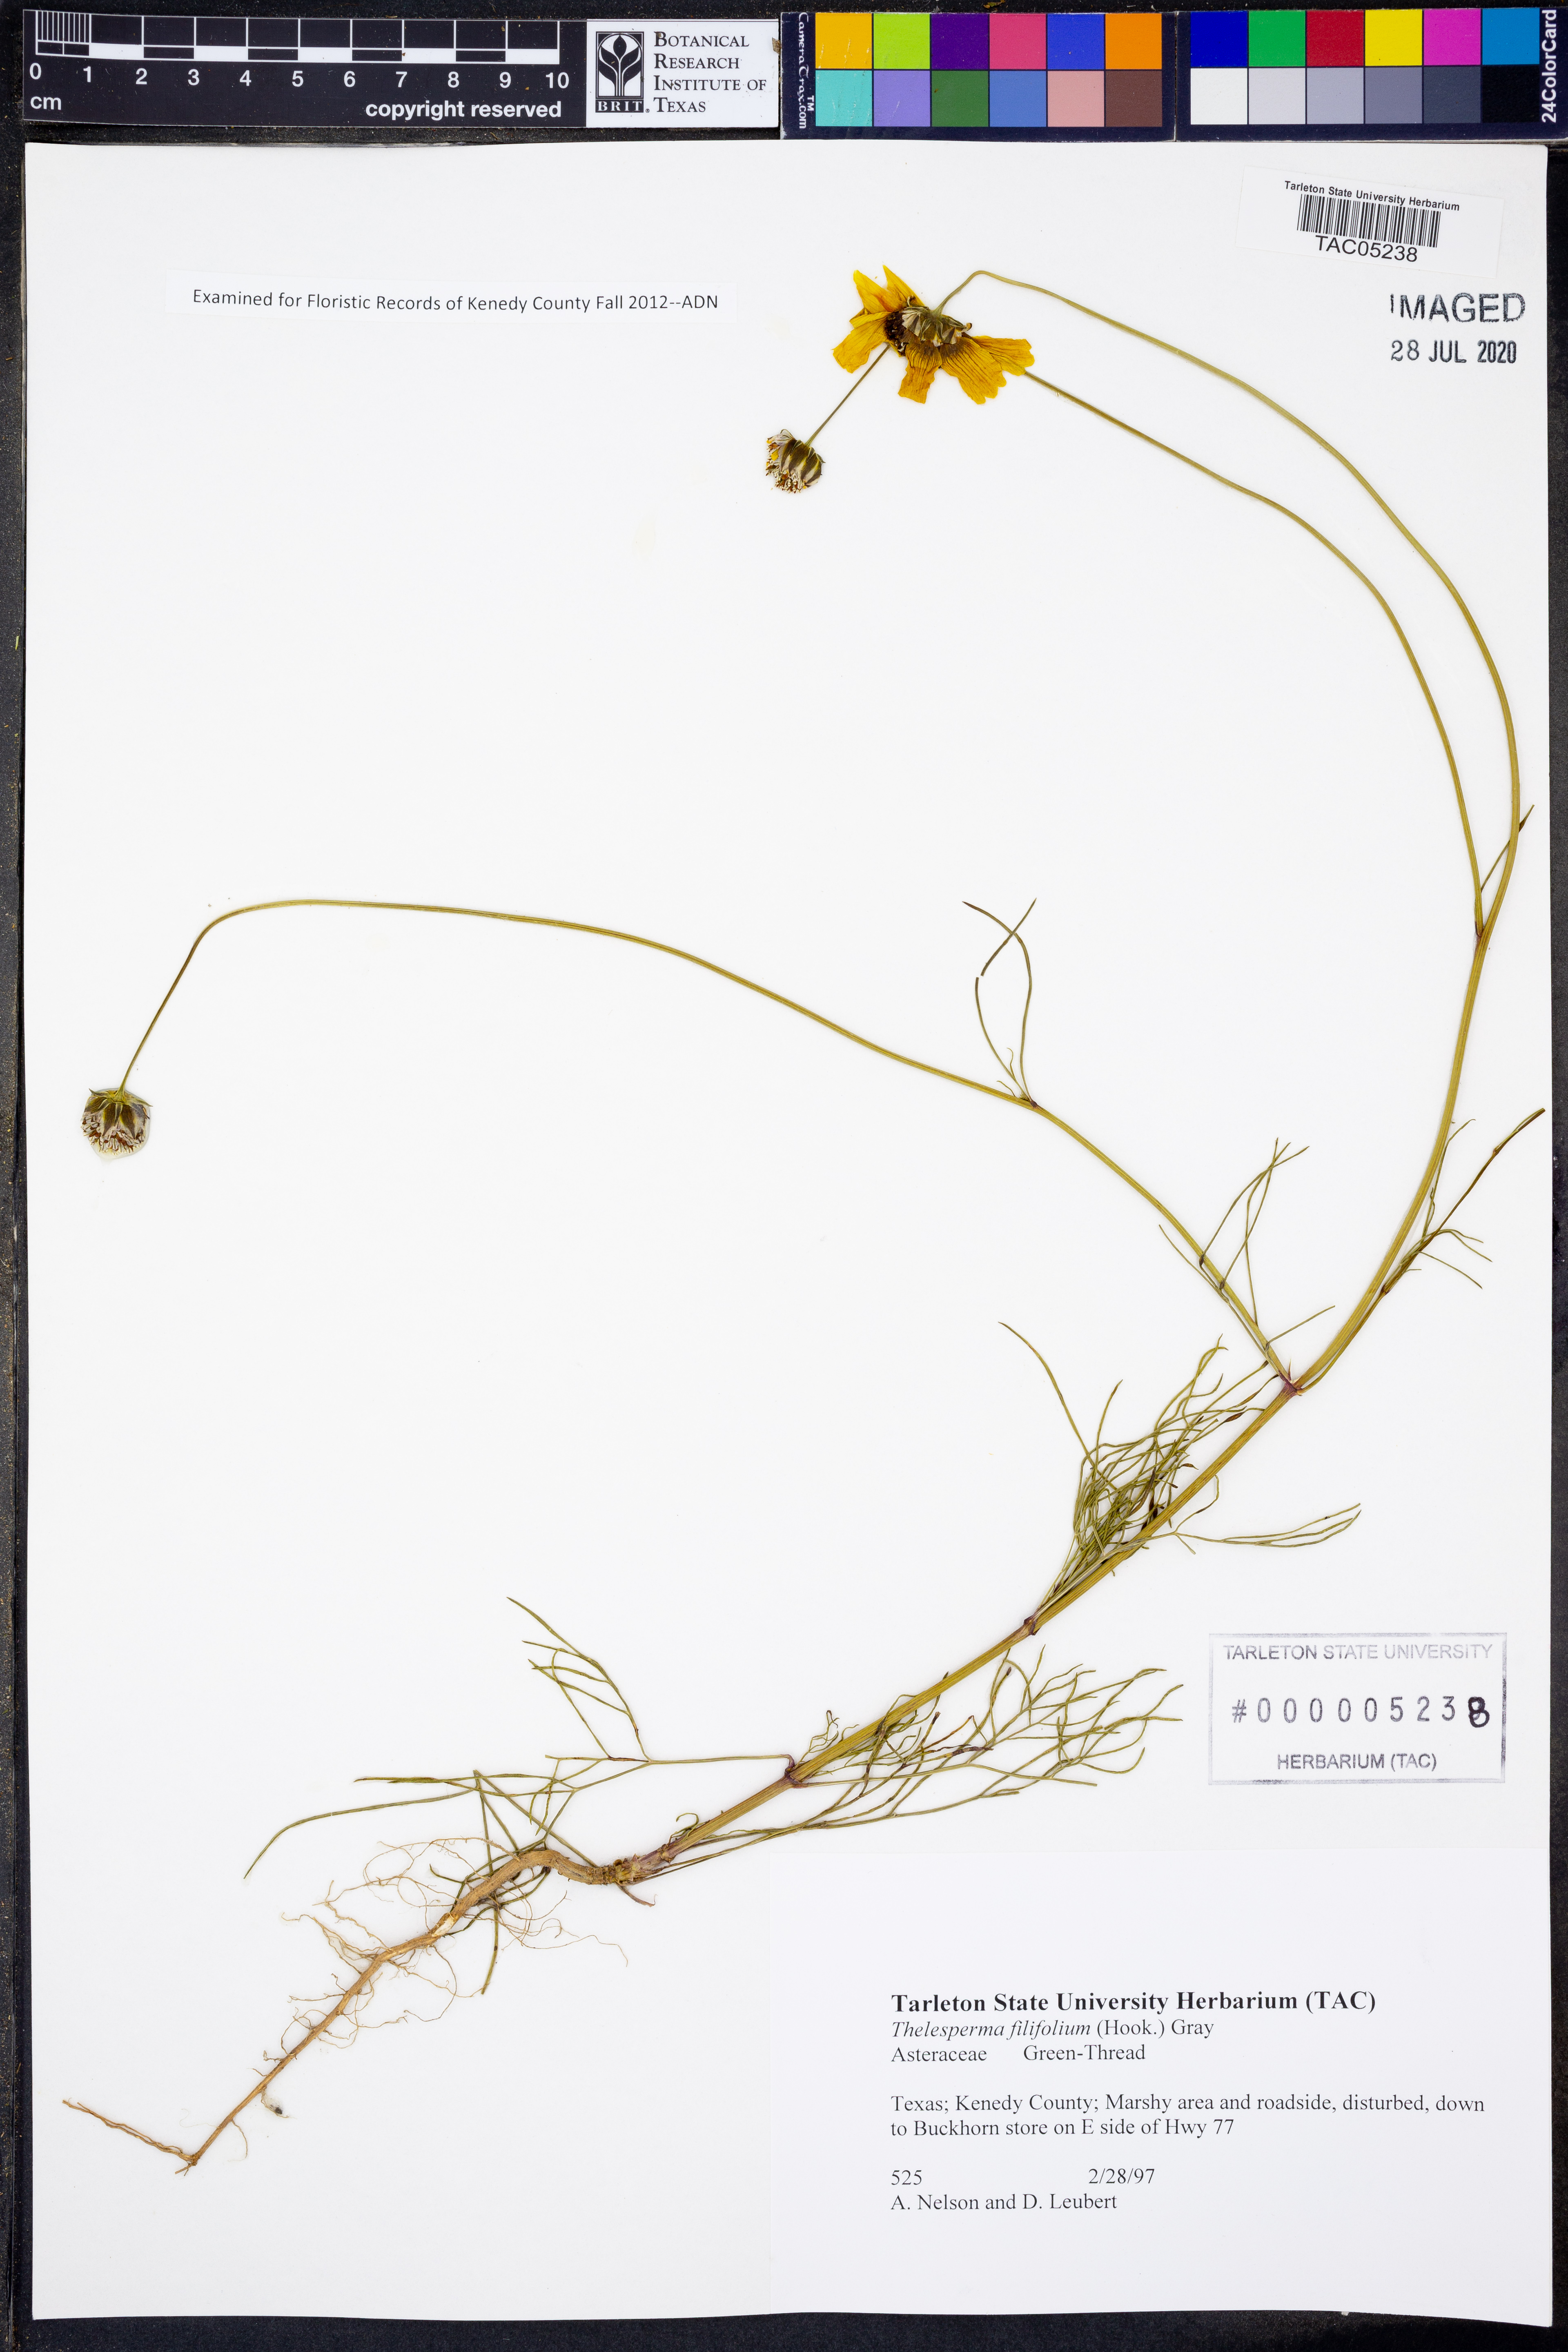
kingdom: Plantae
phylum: Tracheophyta
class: Magnoliopsida
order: Asterales
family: Asteraceae
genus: Thelesperma
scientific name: Thelesperma filifolium
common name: Stiff greenthread
